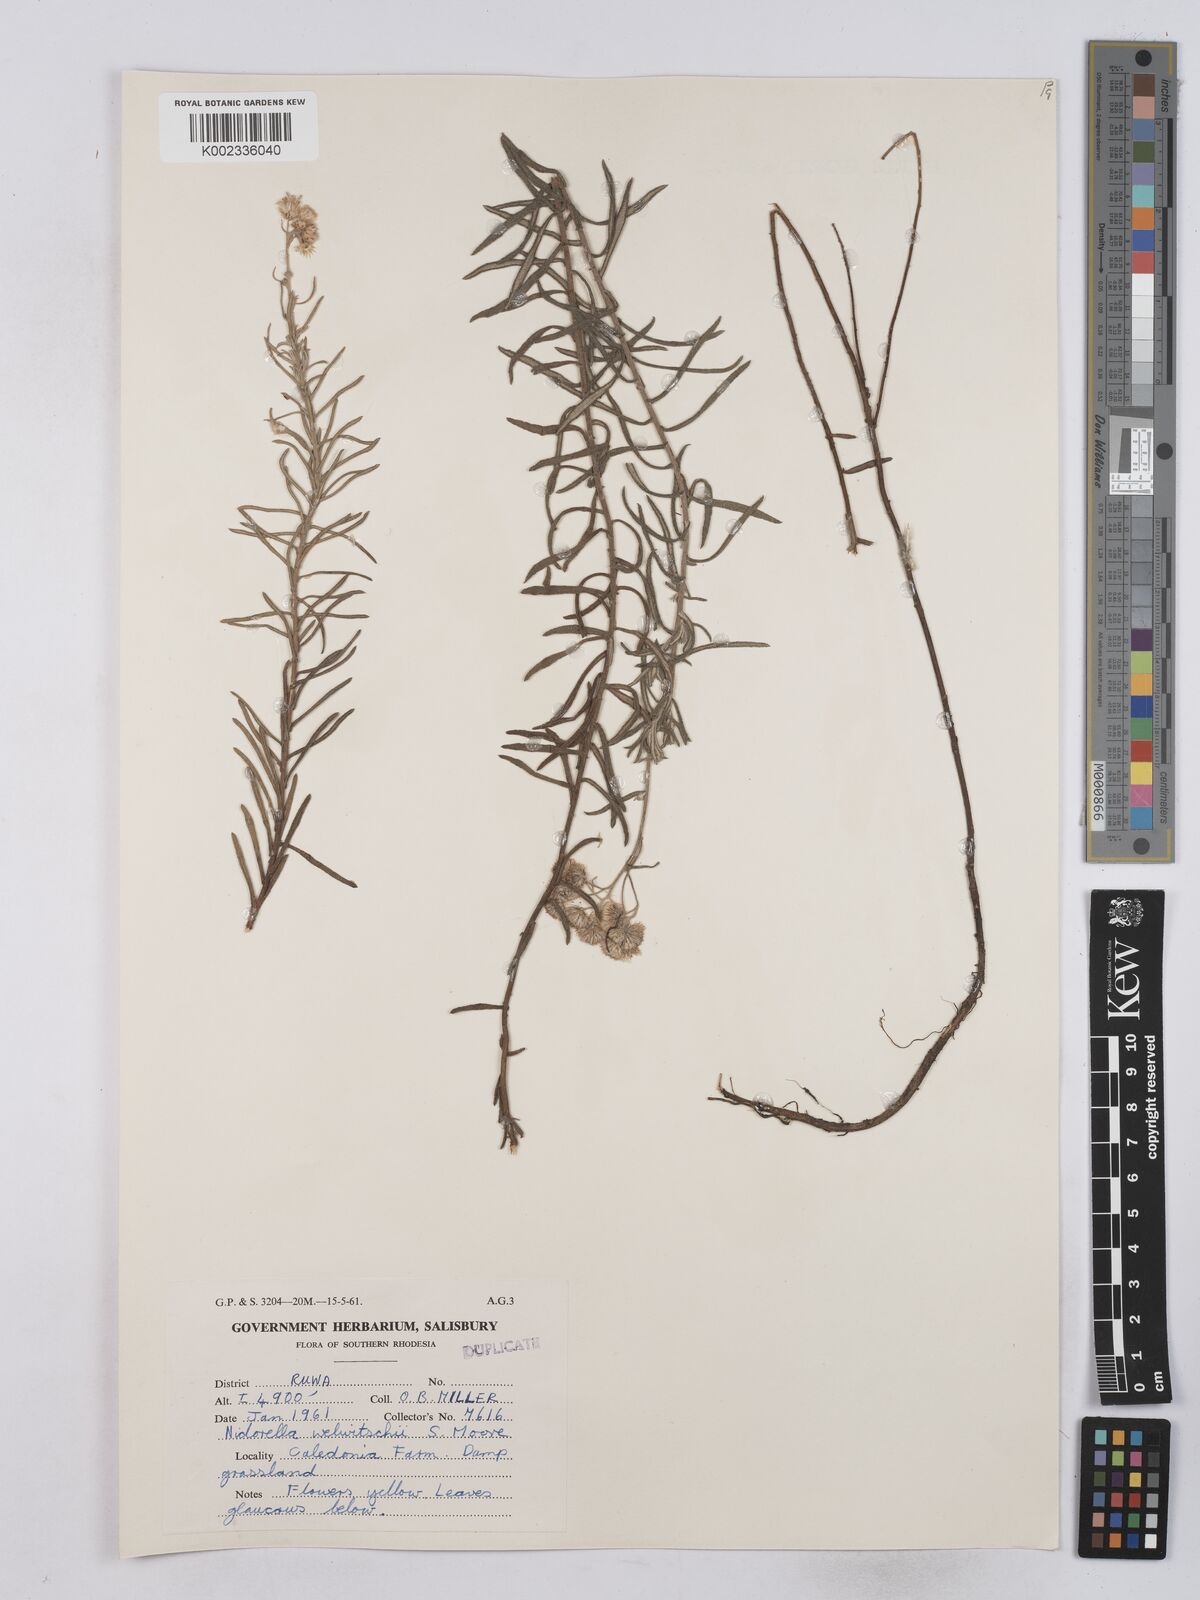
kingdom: Plantae
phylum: Tracheophyta
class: Magnoliopsida
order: Asterales
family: Asteraceae
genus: Nidorella
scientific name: Nidorella welwitschii
